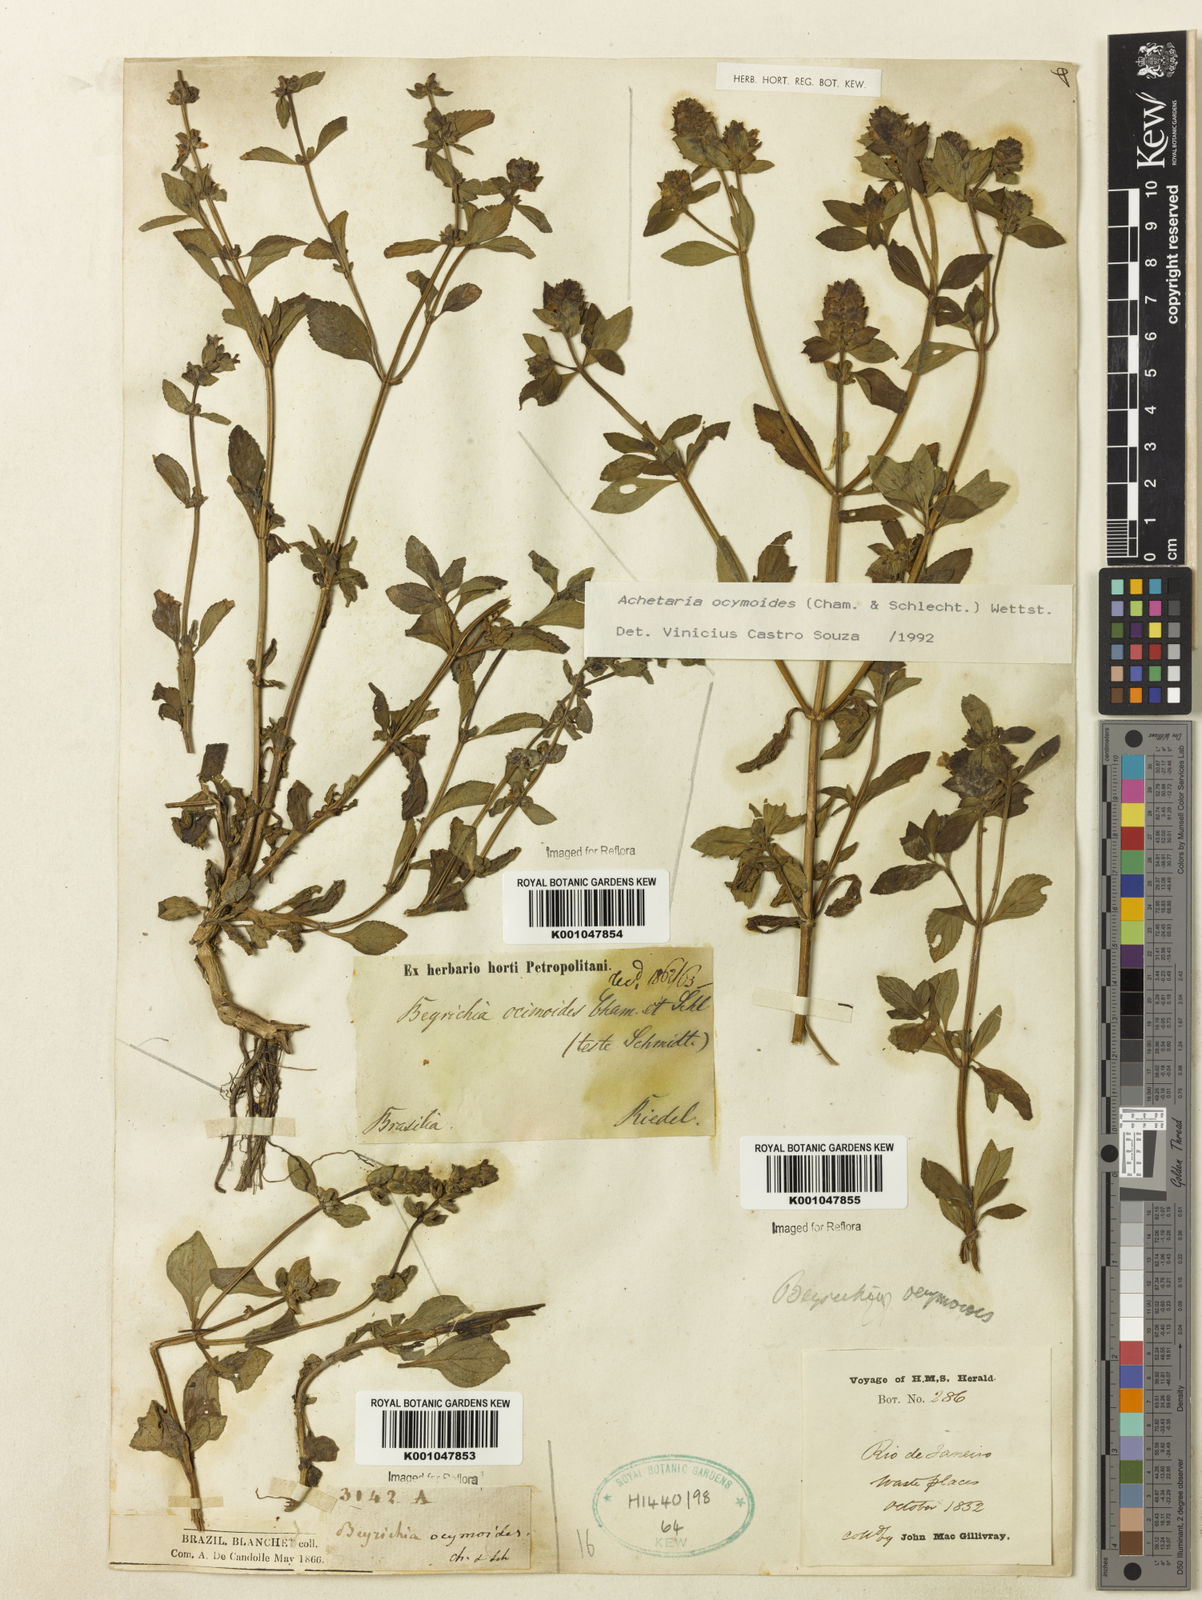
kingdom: Plantae
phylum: Tracheophyta
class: Magnoliopsida
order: Lamiales
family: Plantaginaceae
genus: Matourea
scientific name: Matourea ocymoides
